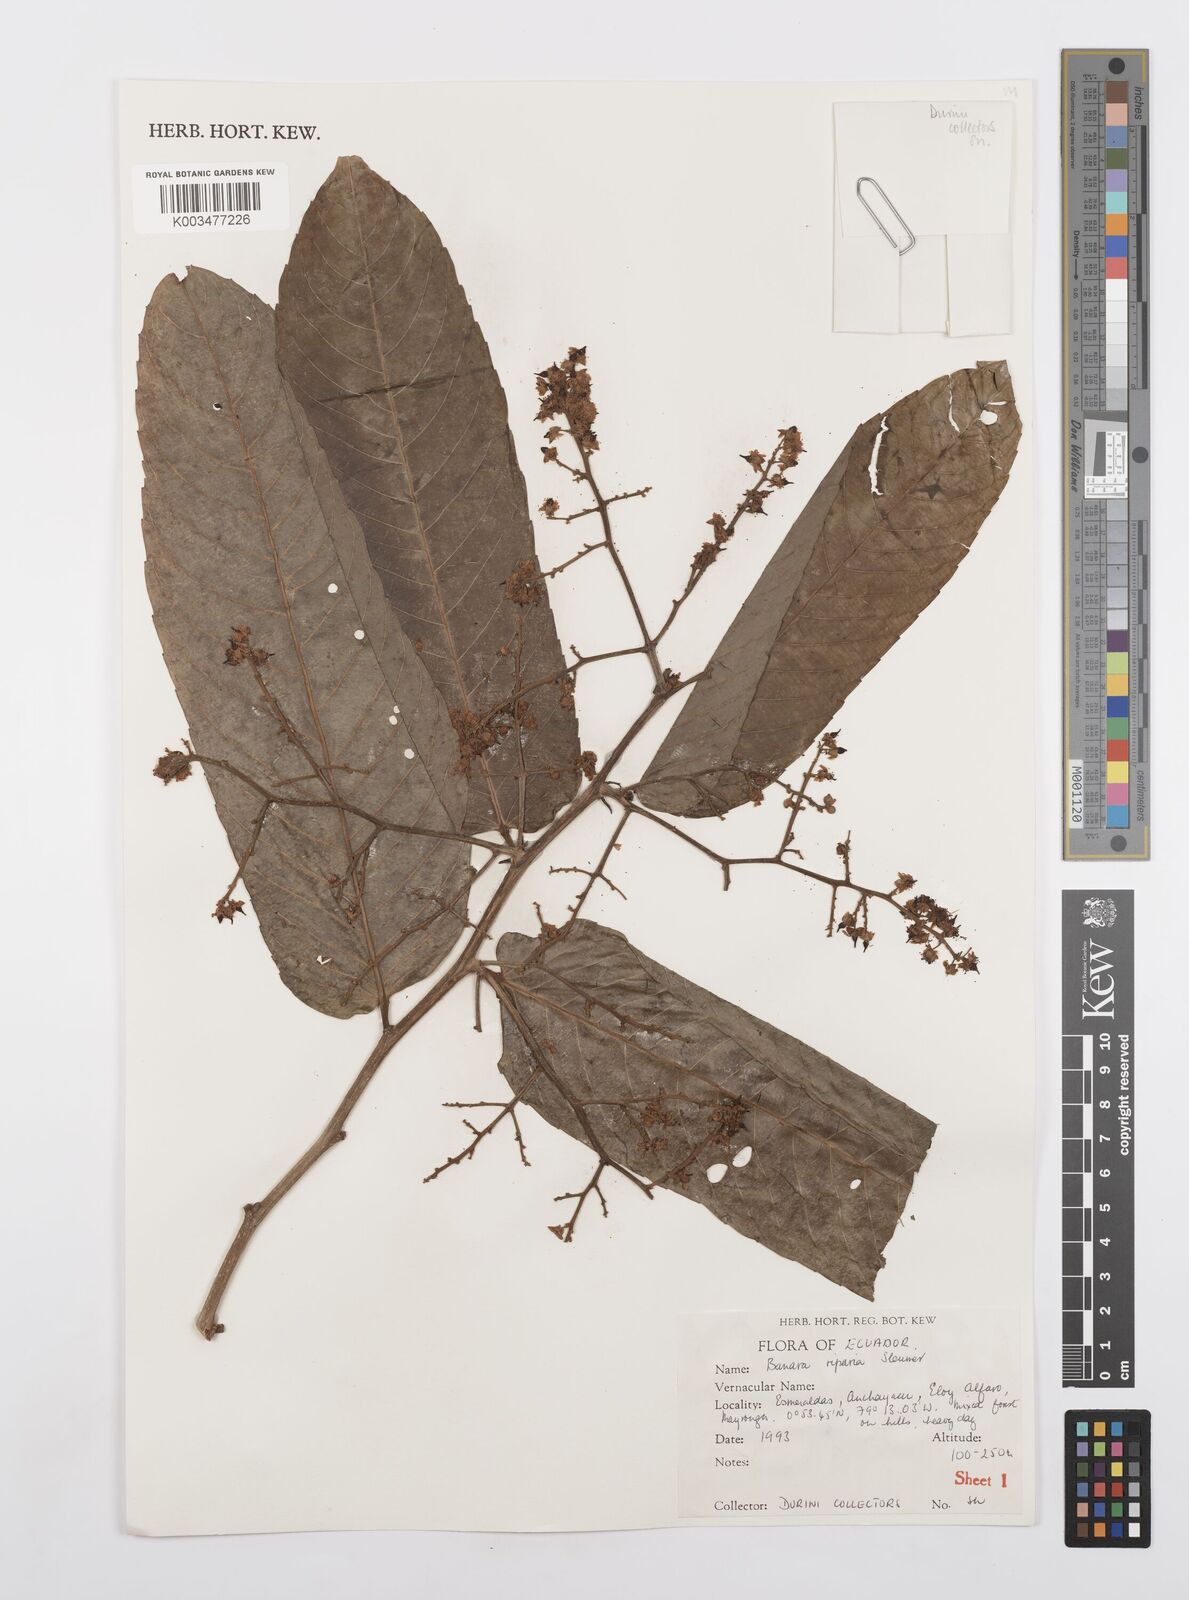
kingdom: Plantae
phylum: Tracheophyta
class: Magnoliopsida
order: Malpighiales
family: Salicaceae
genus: Banara
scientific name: Banara riparia
